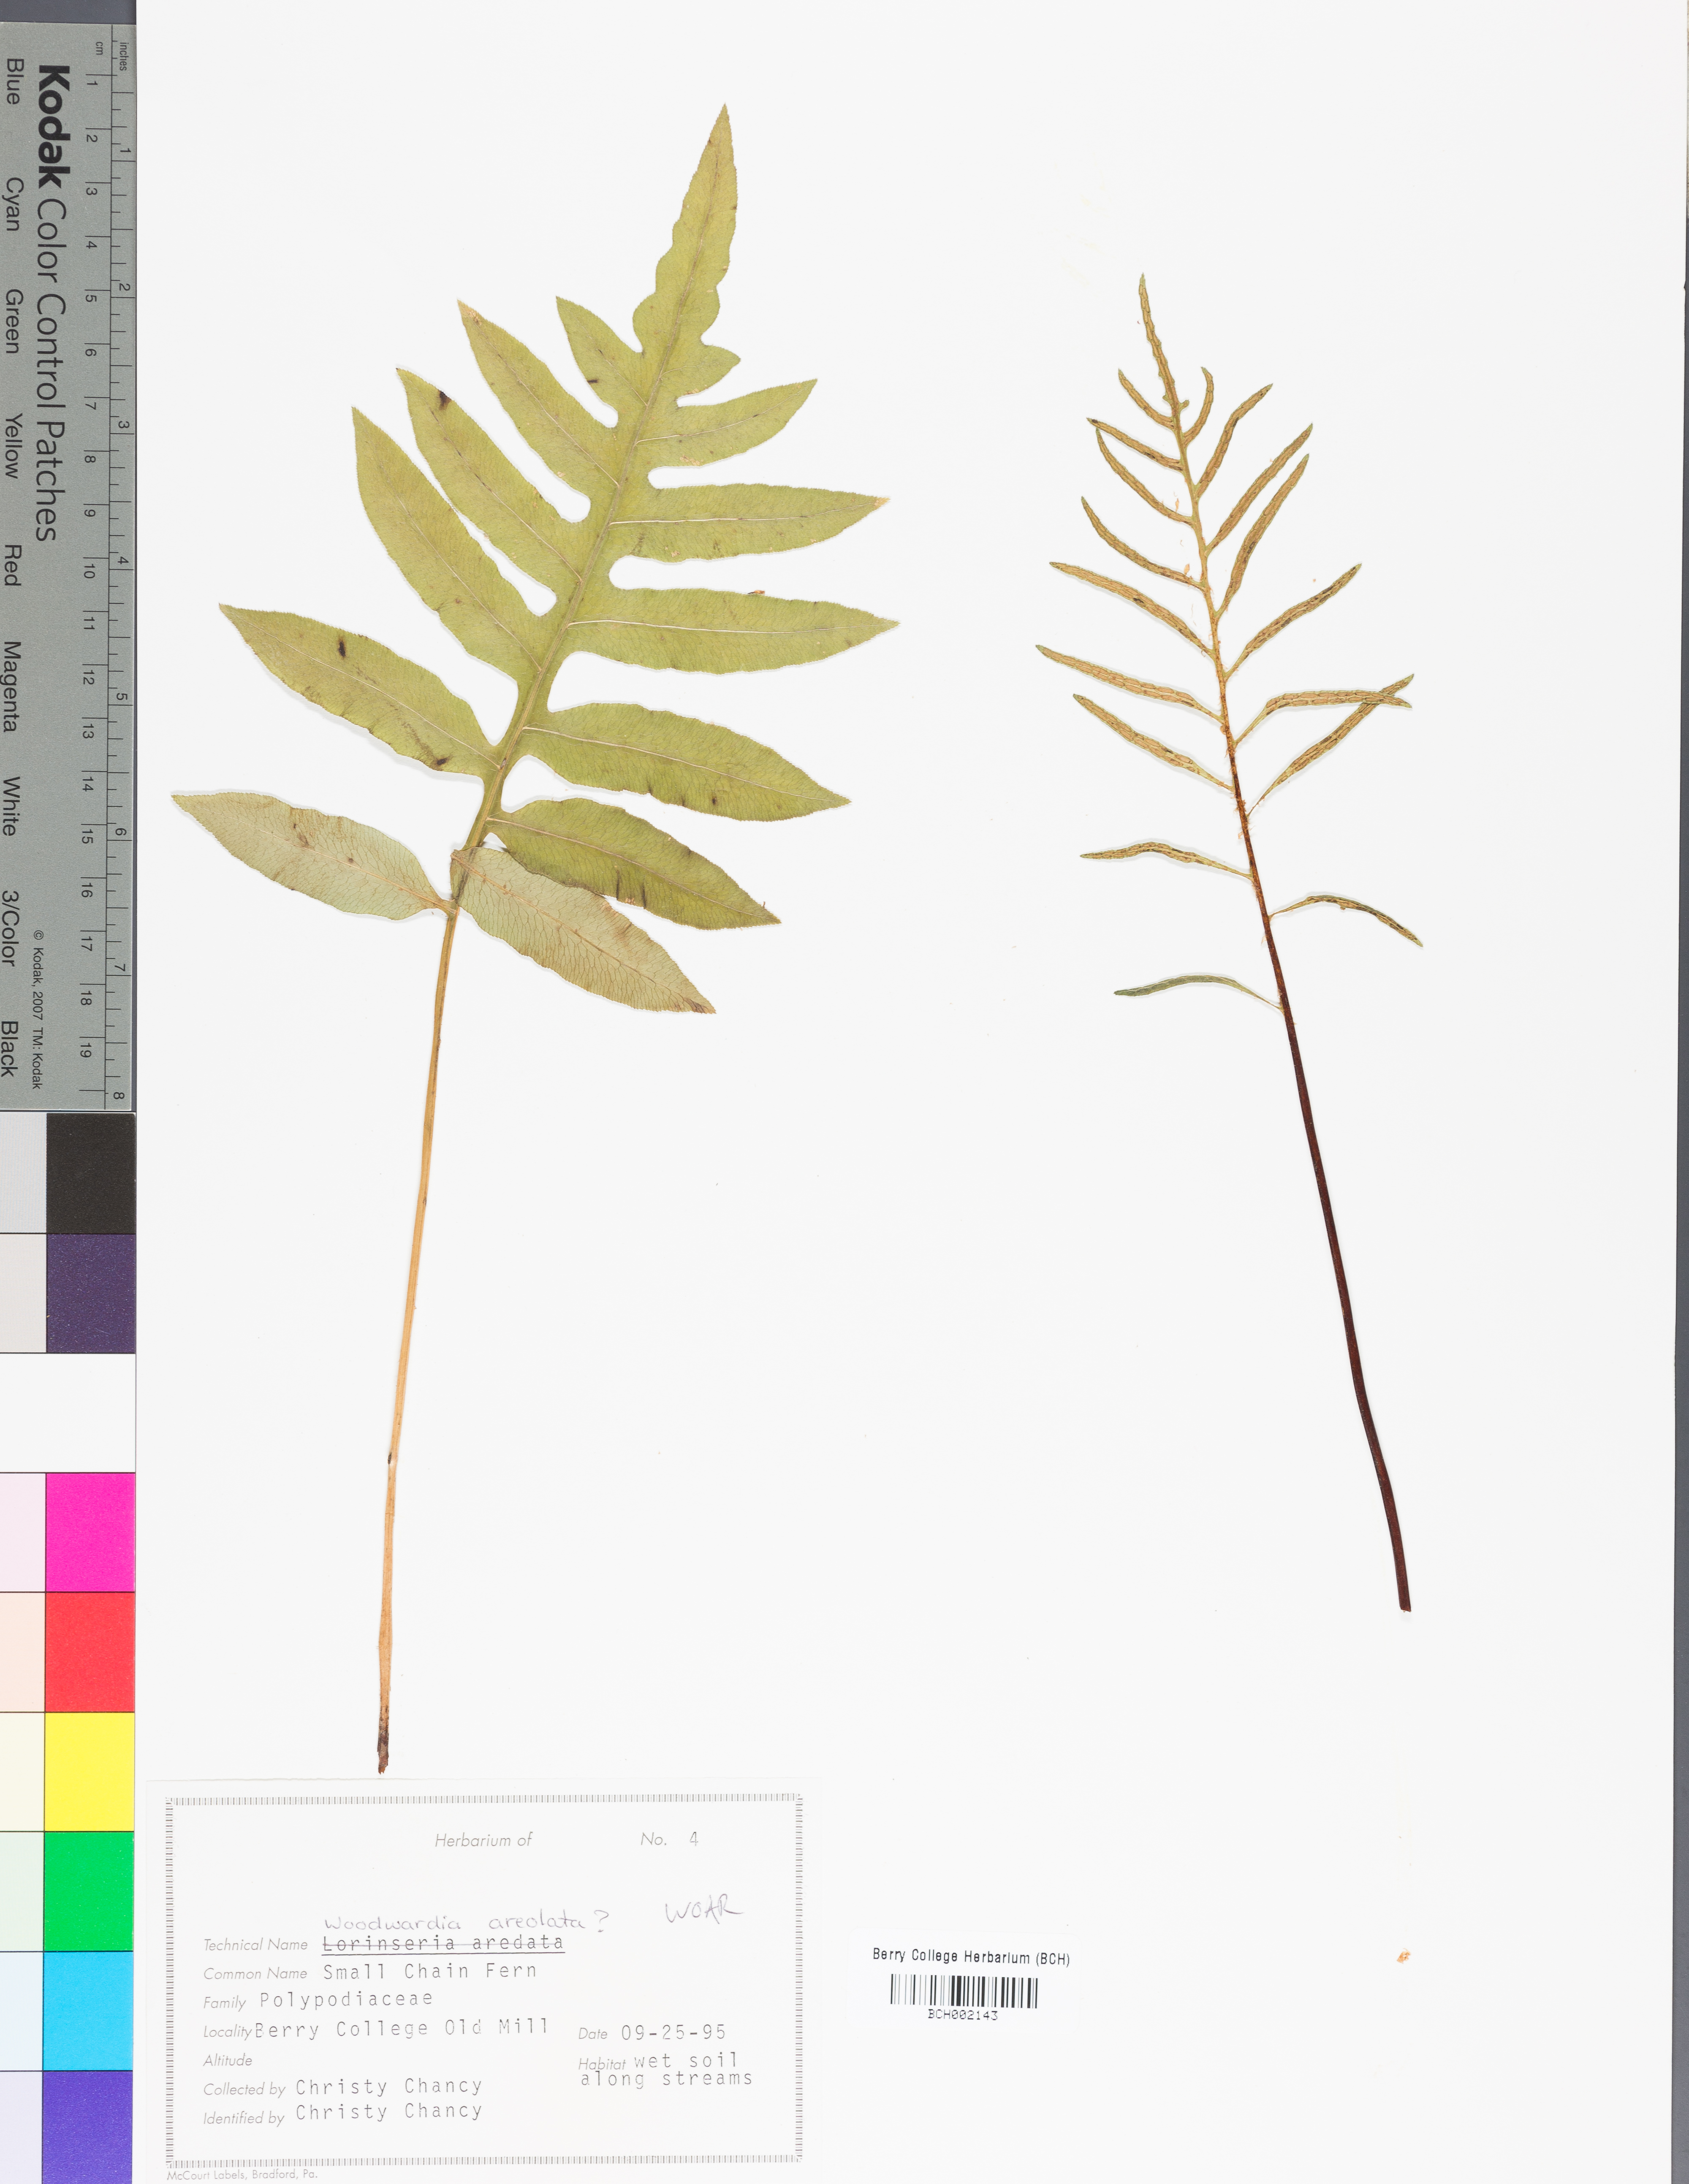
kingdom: Plantae
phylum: Tracheophyta
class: Polypodiopsida
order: Polypodiales
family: Dryopteridaceae
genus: Polystichum
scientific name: Polystichum acrostichoides
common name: Christmas fern
